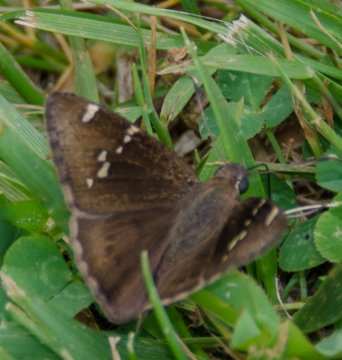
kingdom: Animalia
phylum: Arthropoda
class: Insecta
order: Lepidoptera
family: Hesperiidae
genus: Autochton
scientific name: Autochton
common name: Southern Cloudywing
